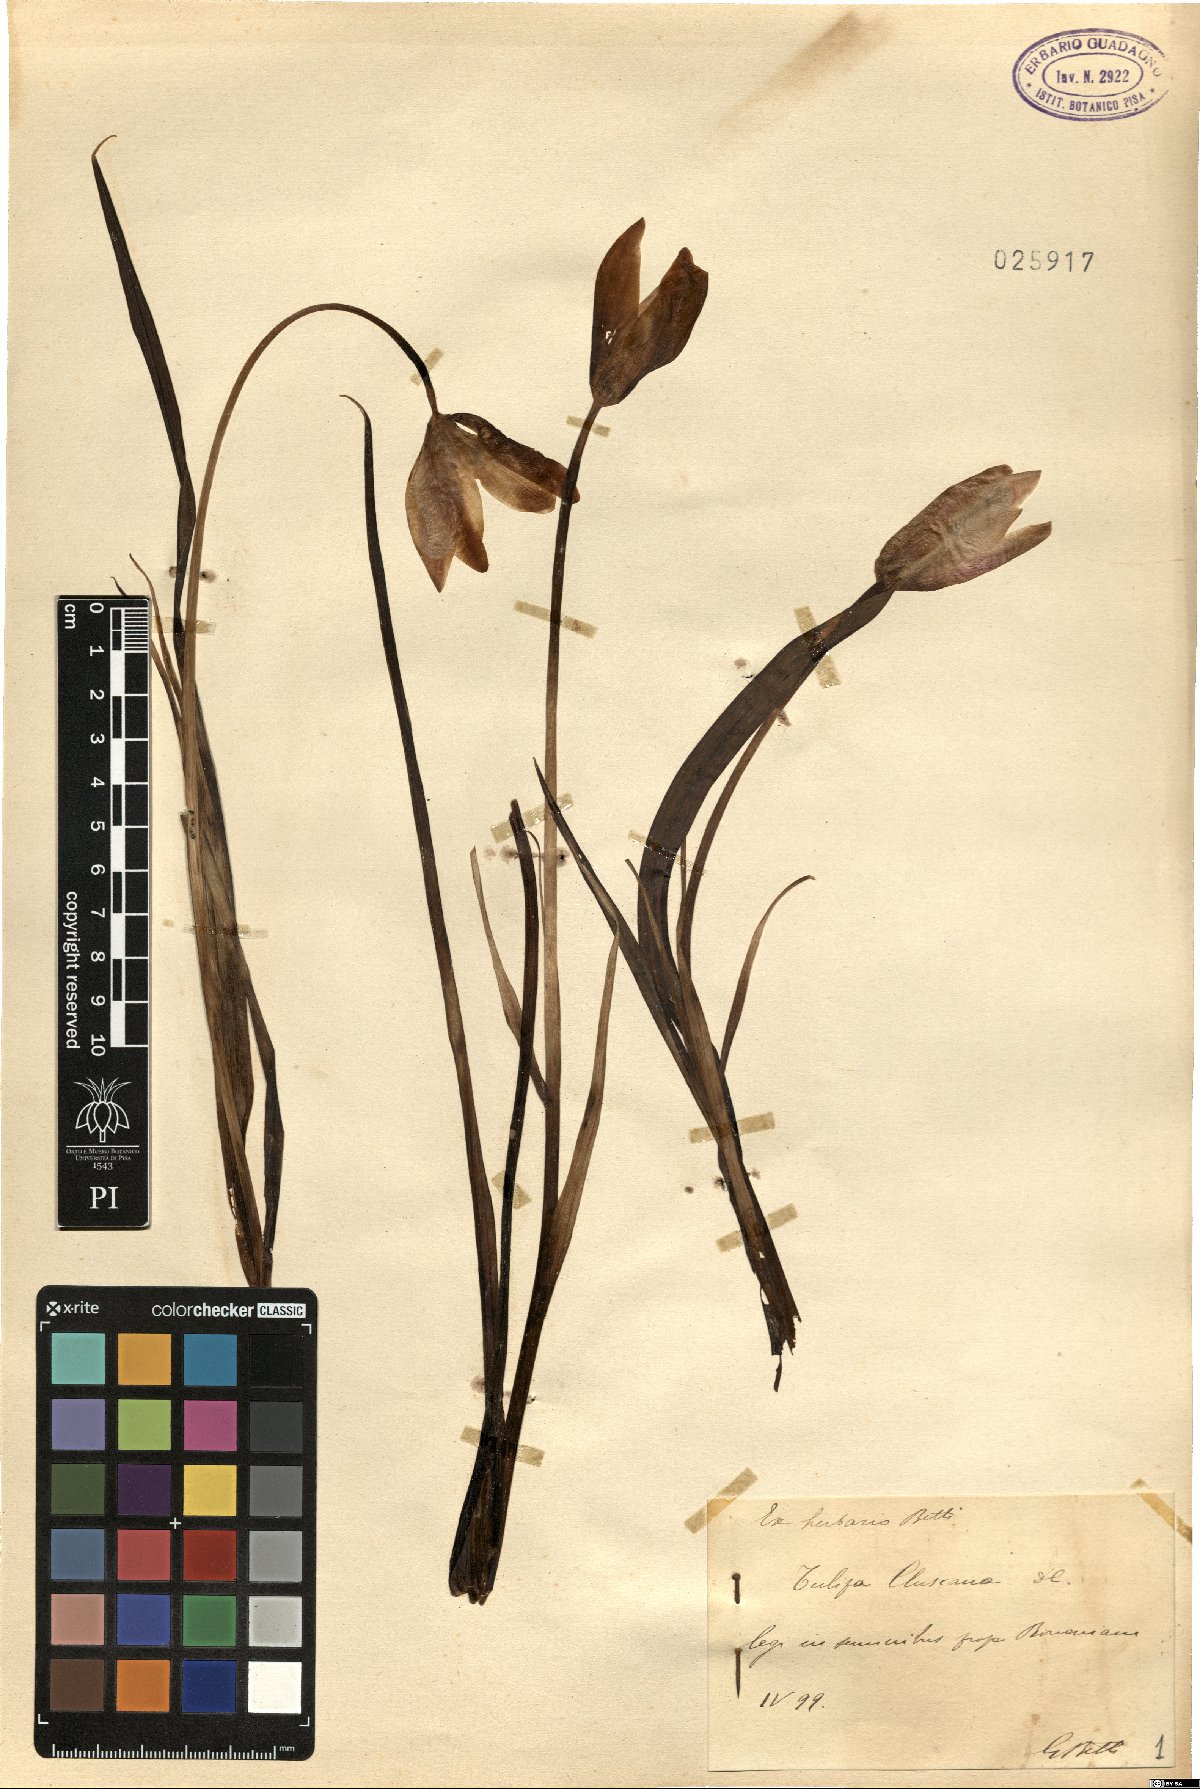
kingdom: Plantae
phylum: Tracheophyta
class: Liliopsida
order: Liliales
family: Liliaceae
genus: Tulipa
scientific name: Tulipa clusiana
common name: Lady tulip
